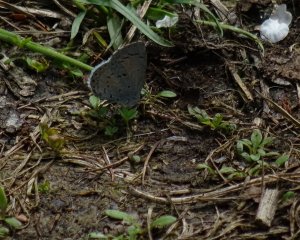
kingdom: Animalia
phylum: Arthropoda
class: Insecta
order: Lepidoptera
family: Lycaenidae
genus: Celastrina
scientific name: Celastrina lucia
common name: Northern Spring Azure
